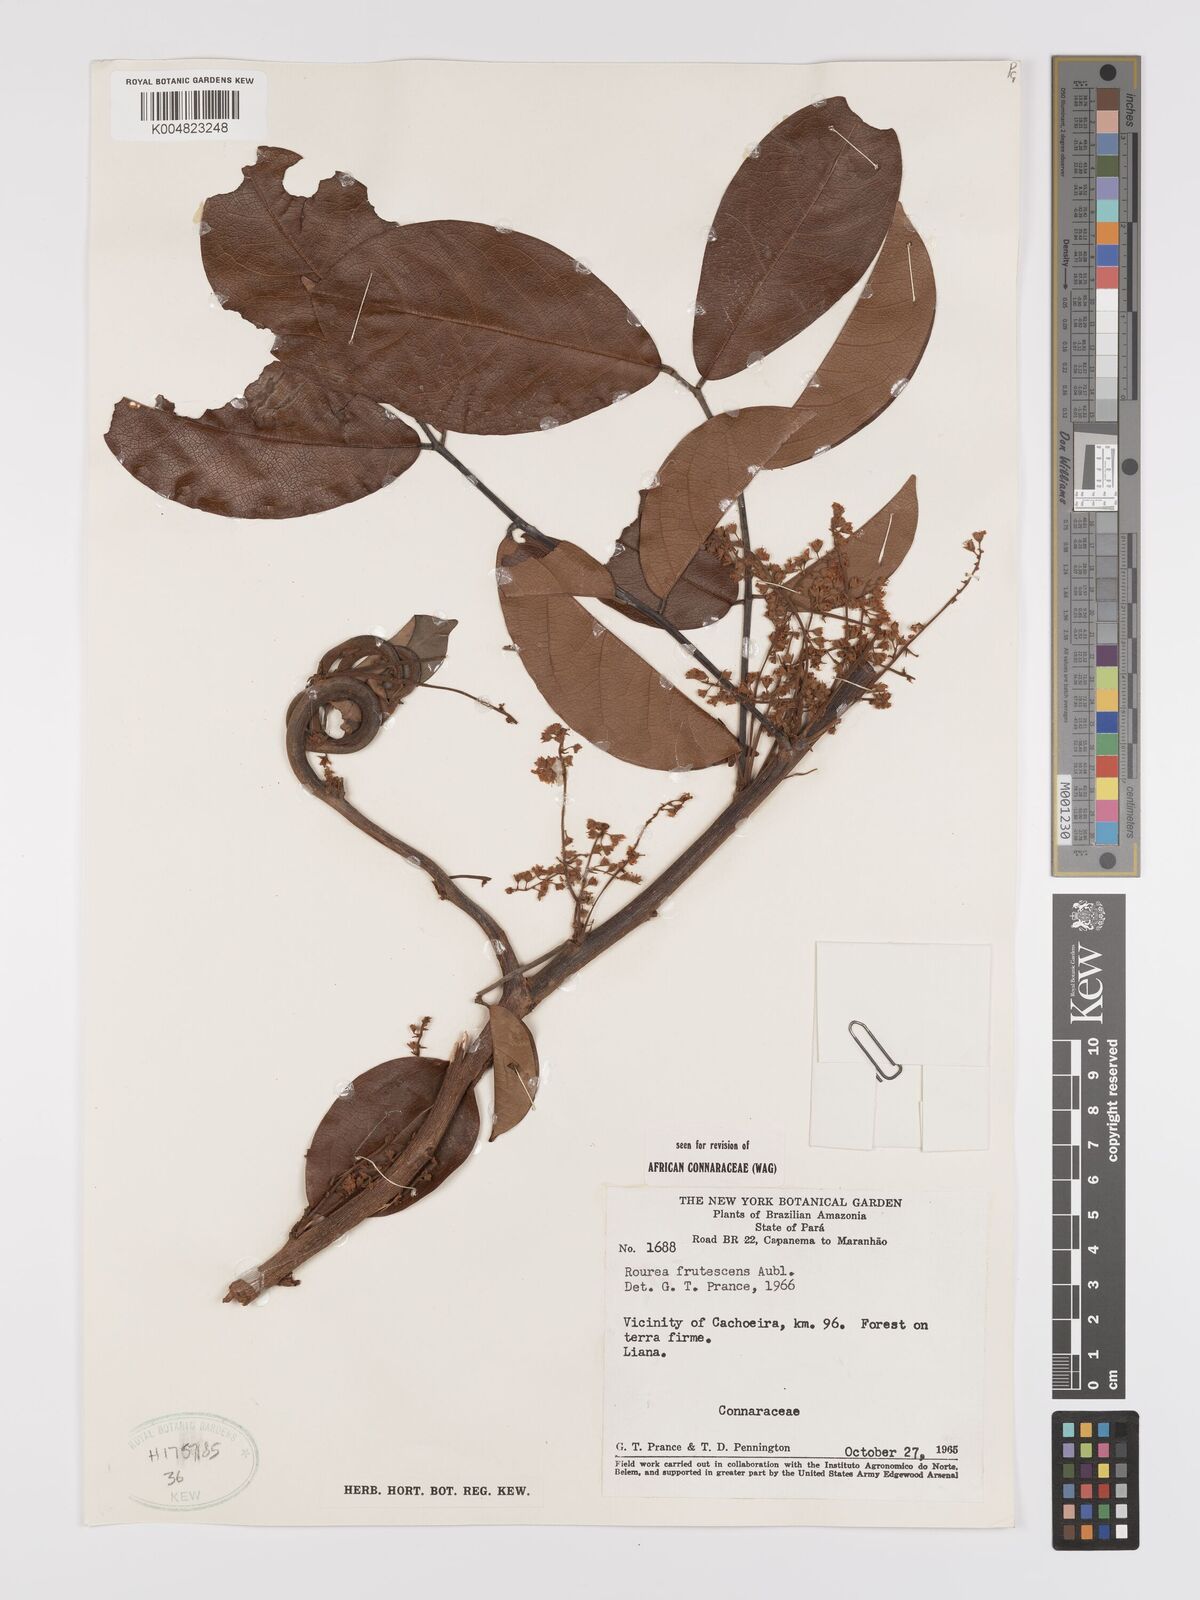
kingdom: Plantae
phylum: Tracheophyta
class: Magnoliopsida
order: Oxalidales
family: Connaraceae
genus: Rourea
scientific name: Rourea frutescens
